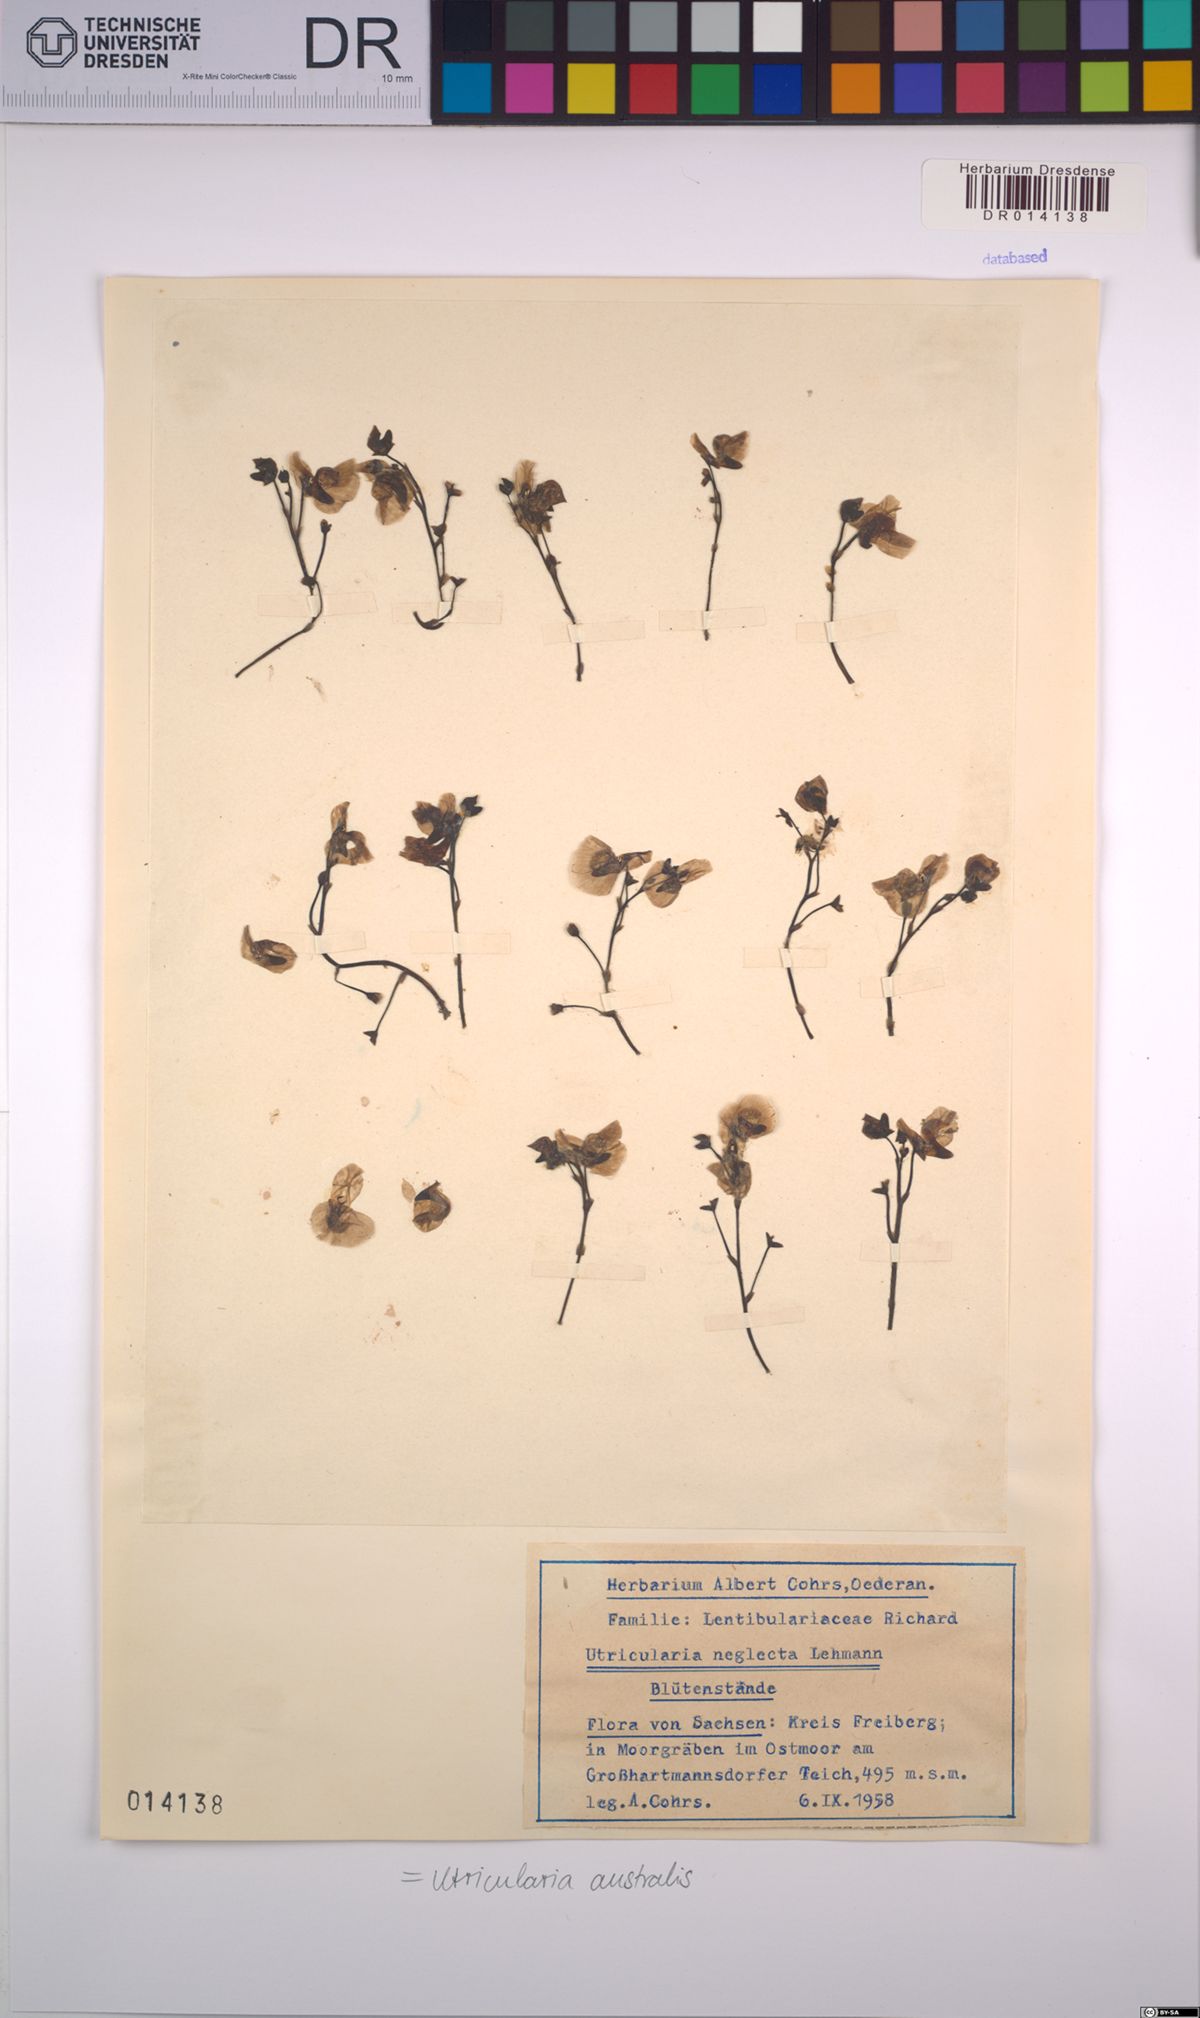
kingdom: Plantae
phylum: Tracheophyta
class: Magnoliopsida
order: Lamiales
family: Lentibulariaceae
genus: Utricularia
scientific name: Utricularia australis
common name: Bladderwort
